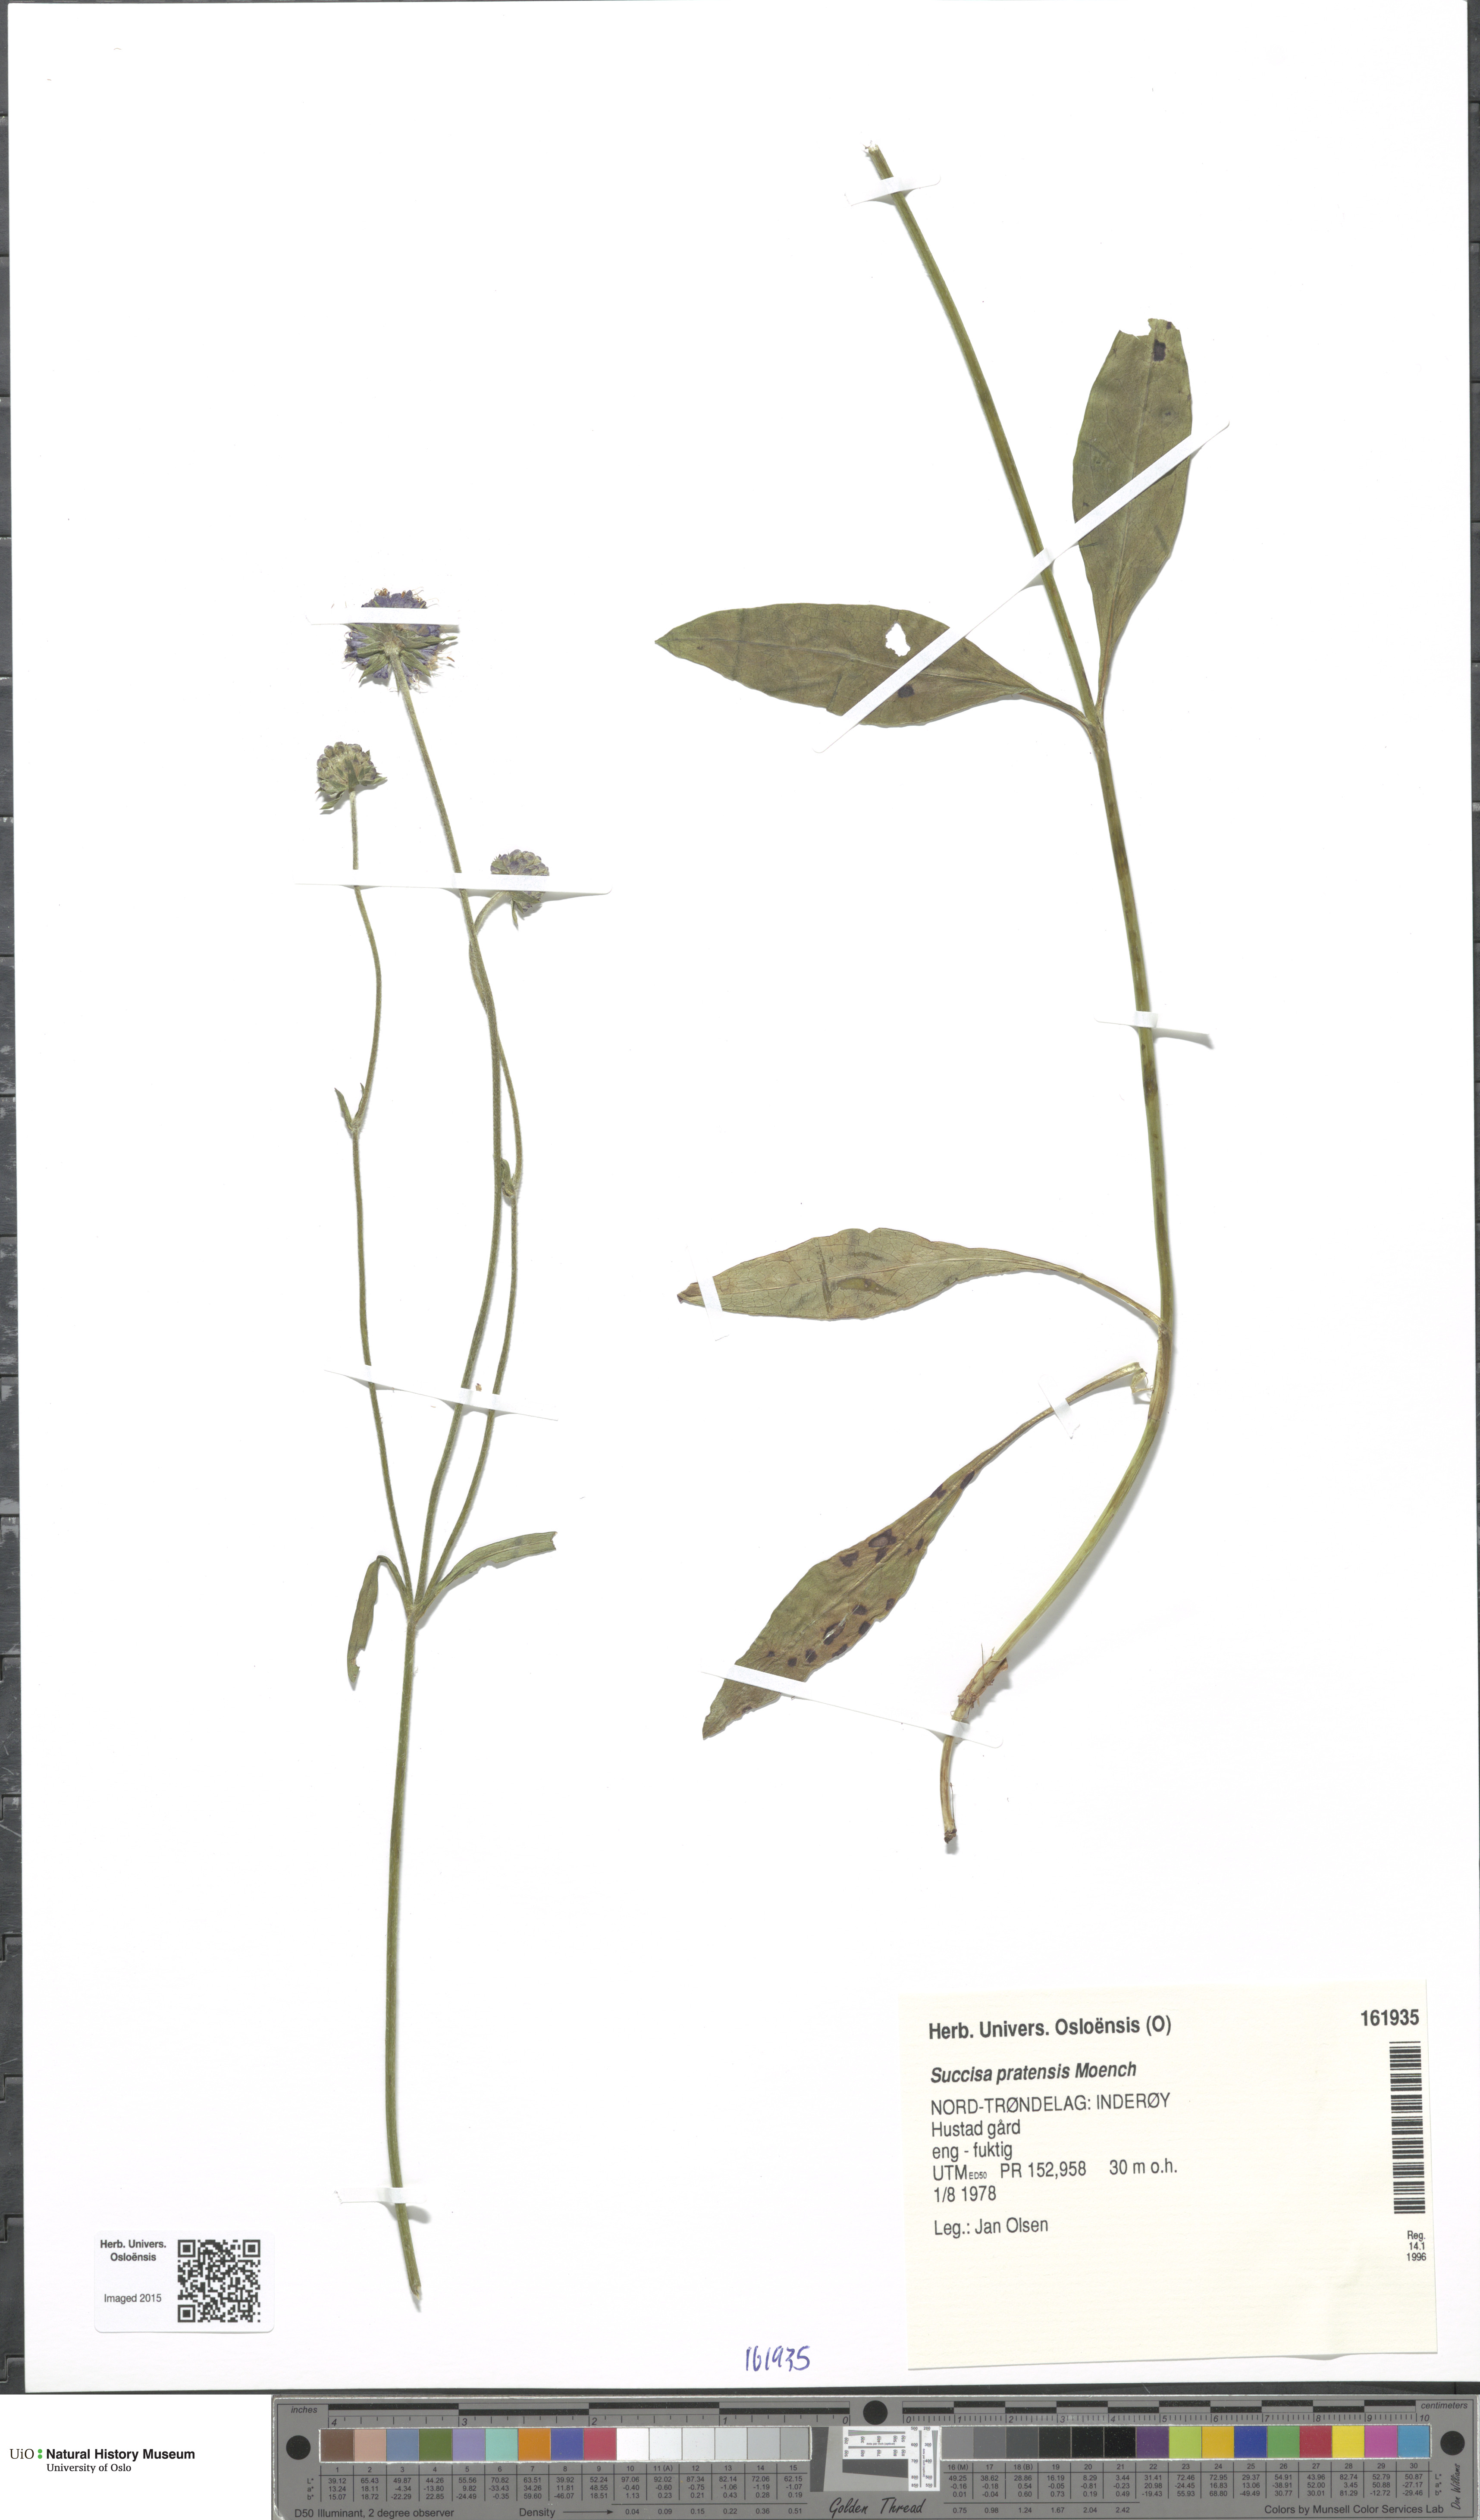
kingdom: Plantae
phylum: Tracheophyta
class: Magnoliopsida
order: Dipsacales
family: Caprifoliaceae
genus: Succisa
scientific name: Succisa pratensis
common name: Devil's-bit
